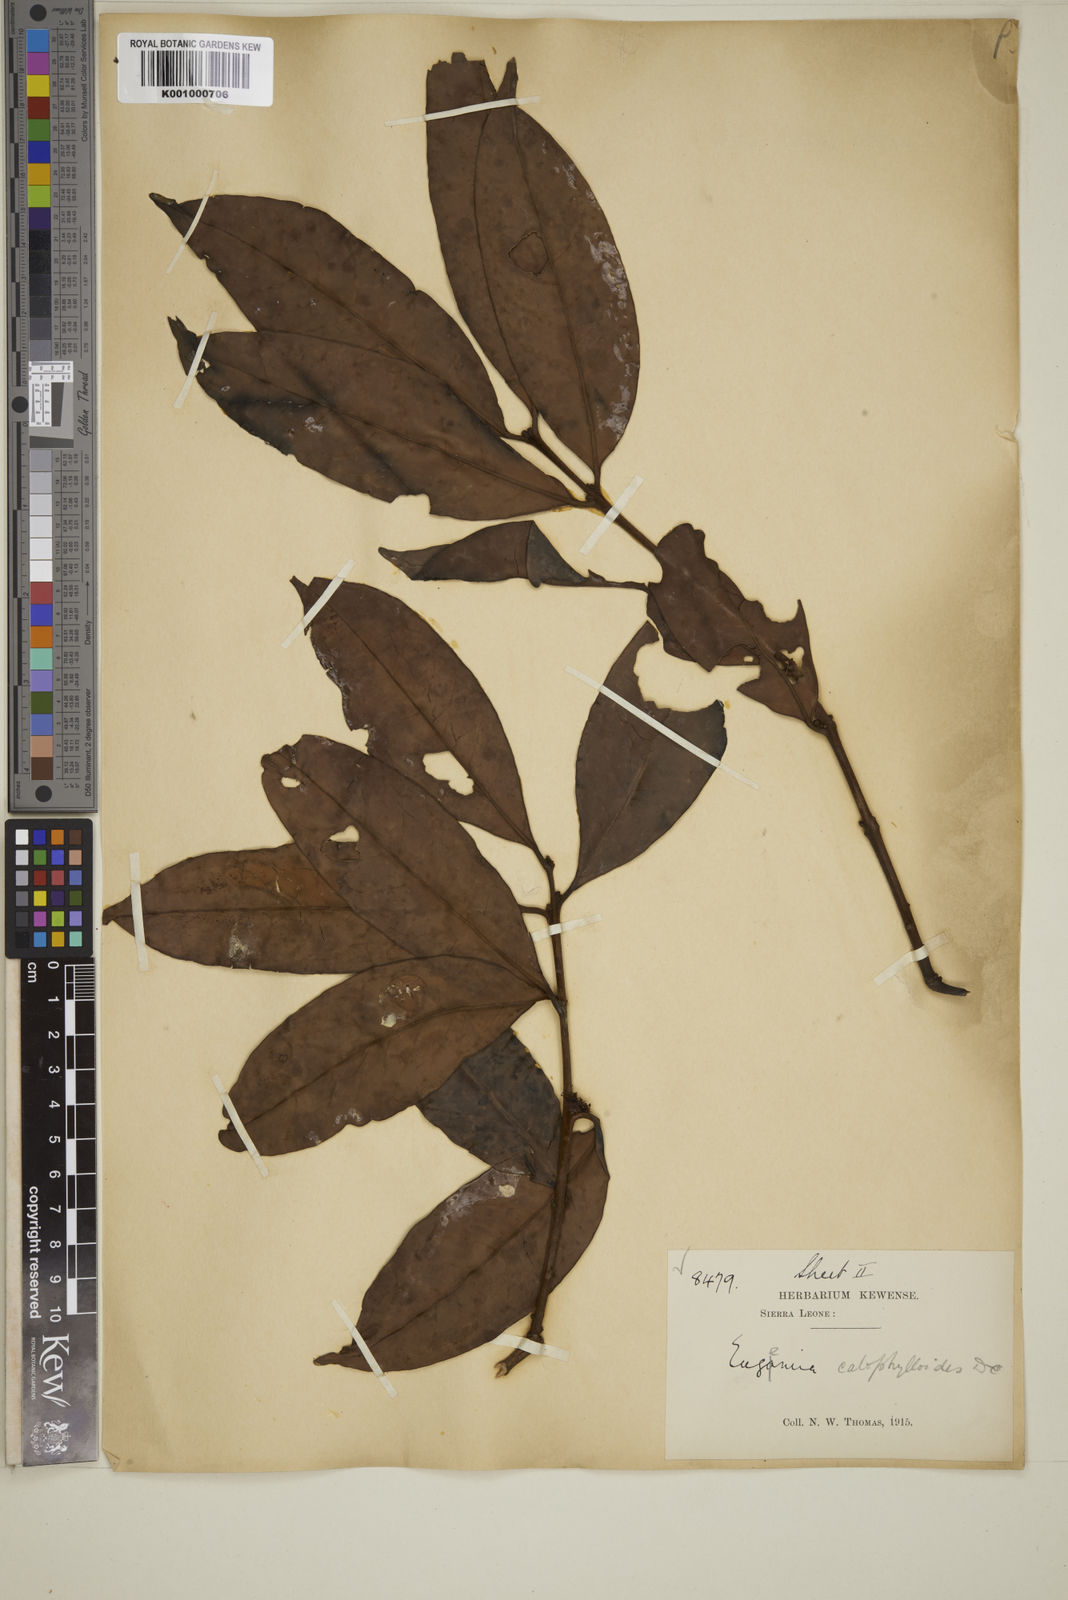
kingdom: Plantae
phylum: Tracheophyta
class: Magnoliopsida
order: Myrtales
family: Myrtaceae
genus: Eugenia
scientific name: Eugenia calophylloides
